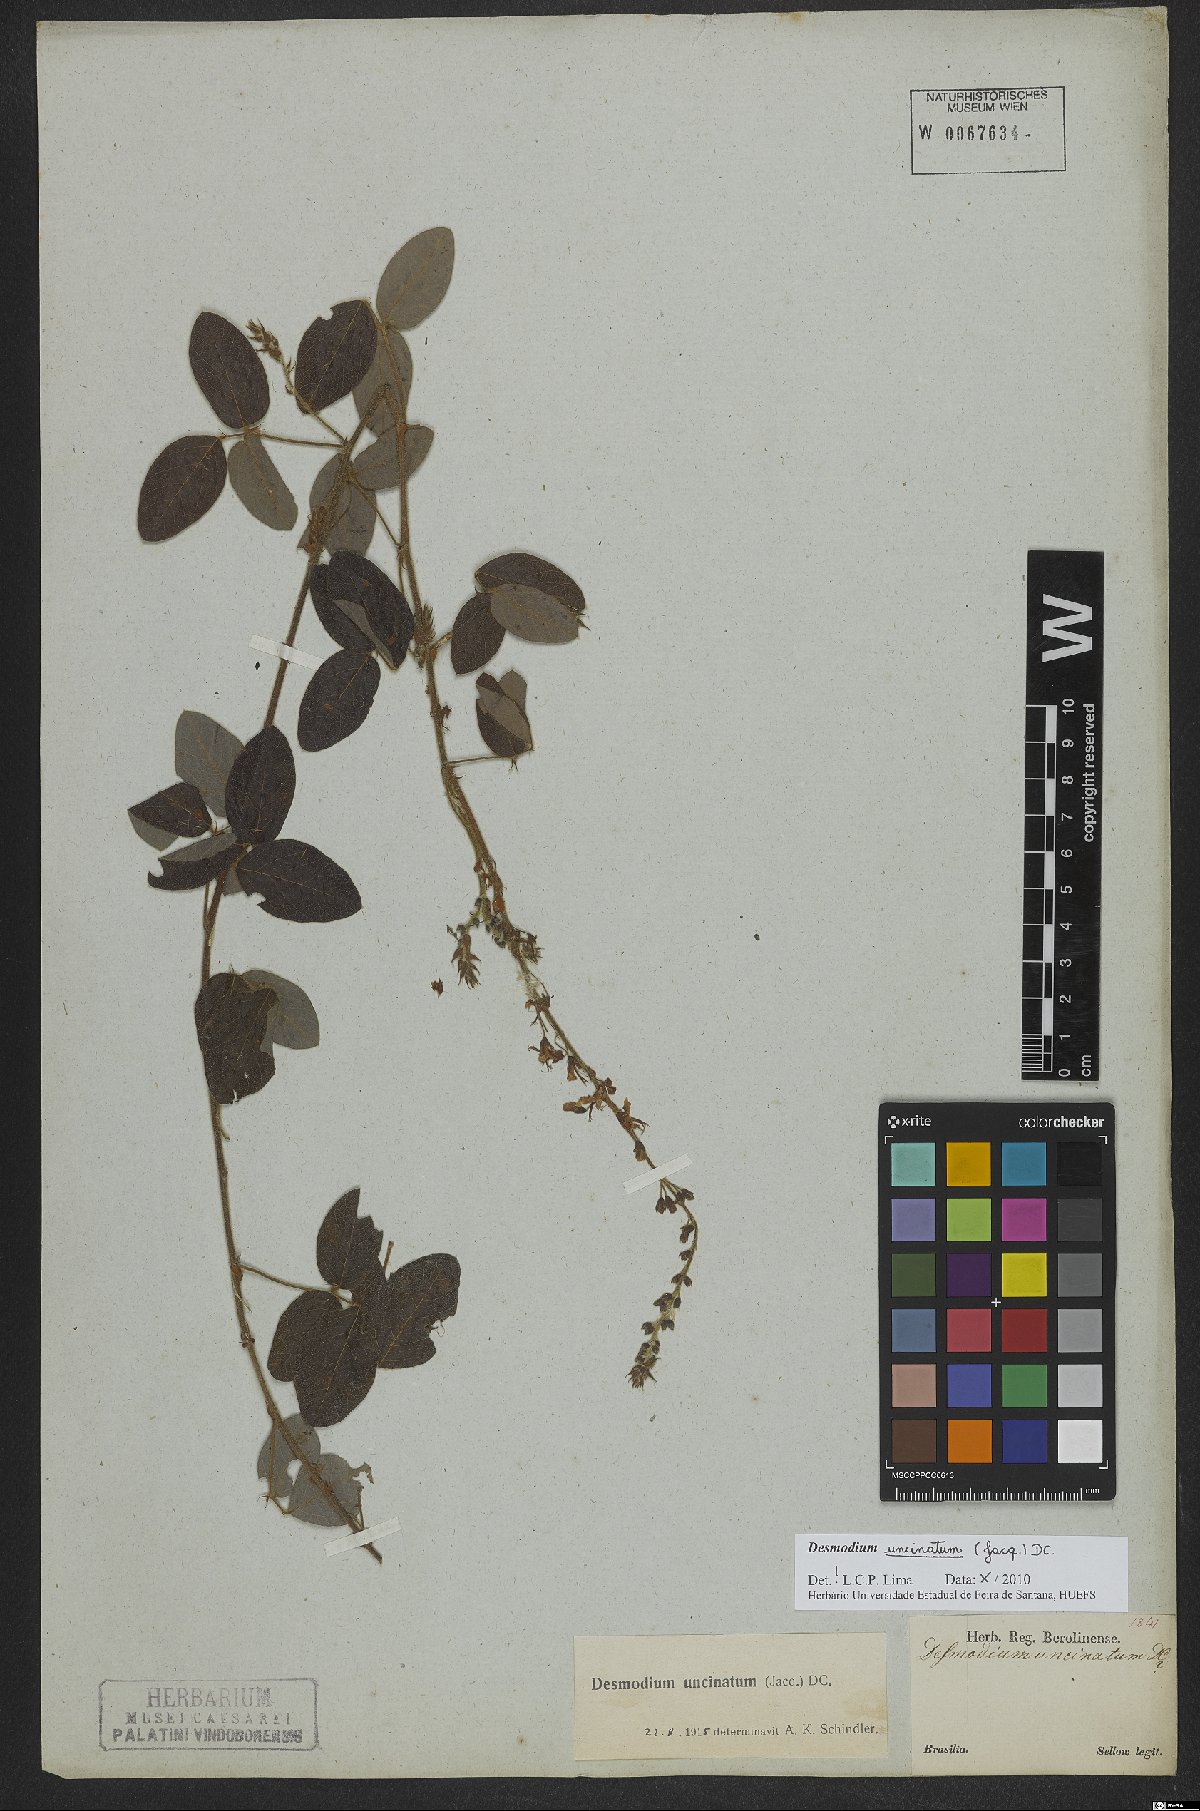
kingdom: Plantae
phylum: Tracheophyta
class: Magnoliopsida
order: Fabales
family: Fabaceae
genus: Desmodium
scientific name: Desmodium uncinatum
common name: Silverleaf desmodium
